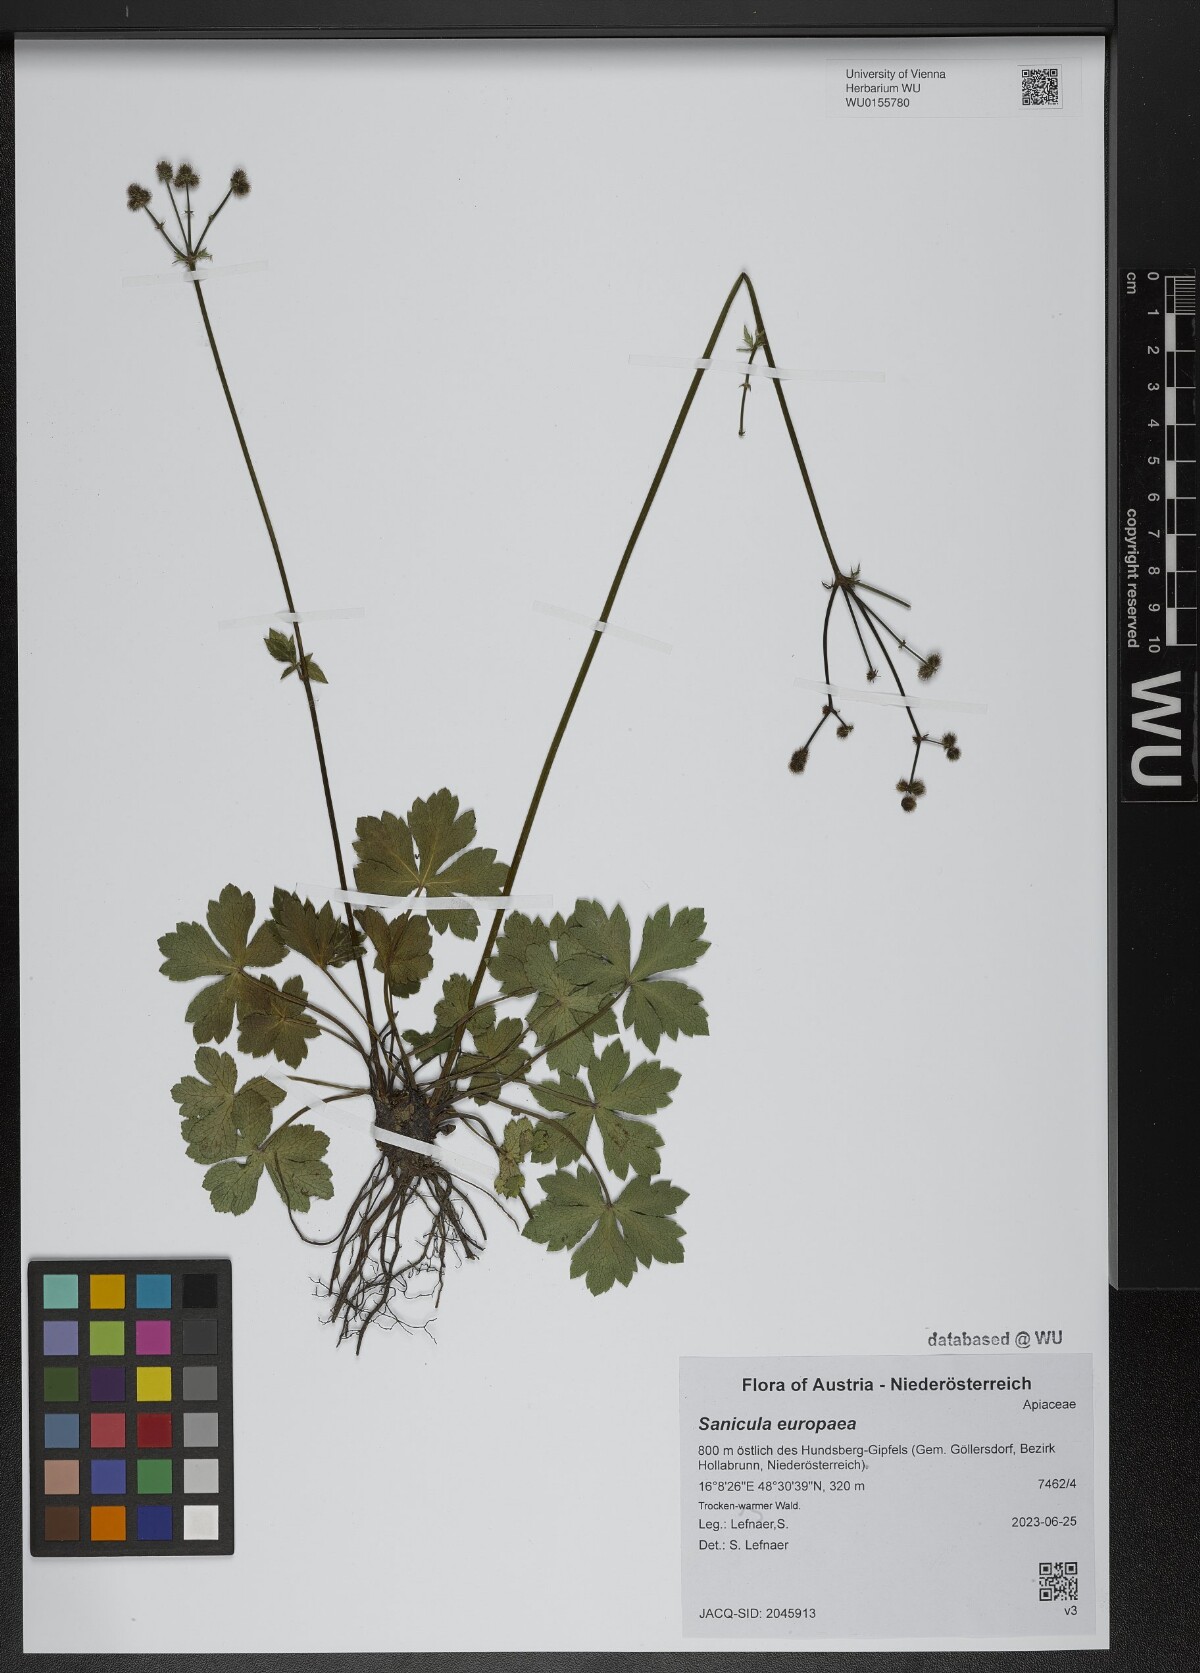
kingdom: Plantae
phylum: Tracheophyta
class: Magnoliopsida
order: Apiales
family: Apiaceae
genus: Sanicula
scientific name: Sanicula europaea
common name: Sanicle
